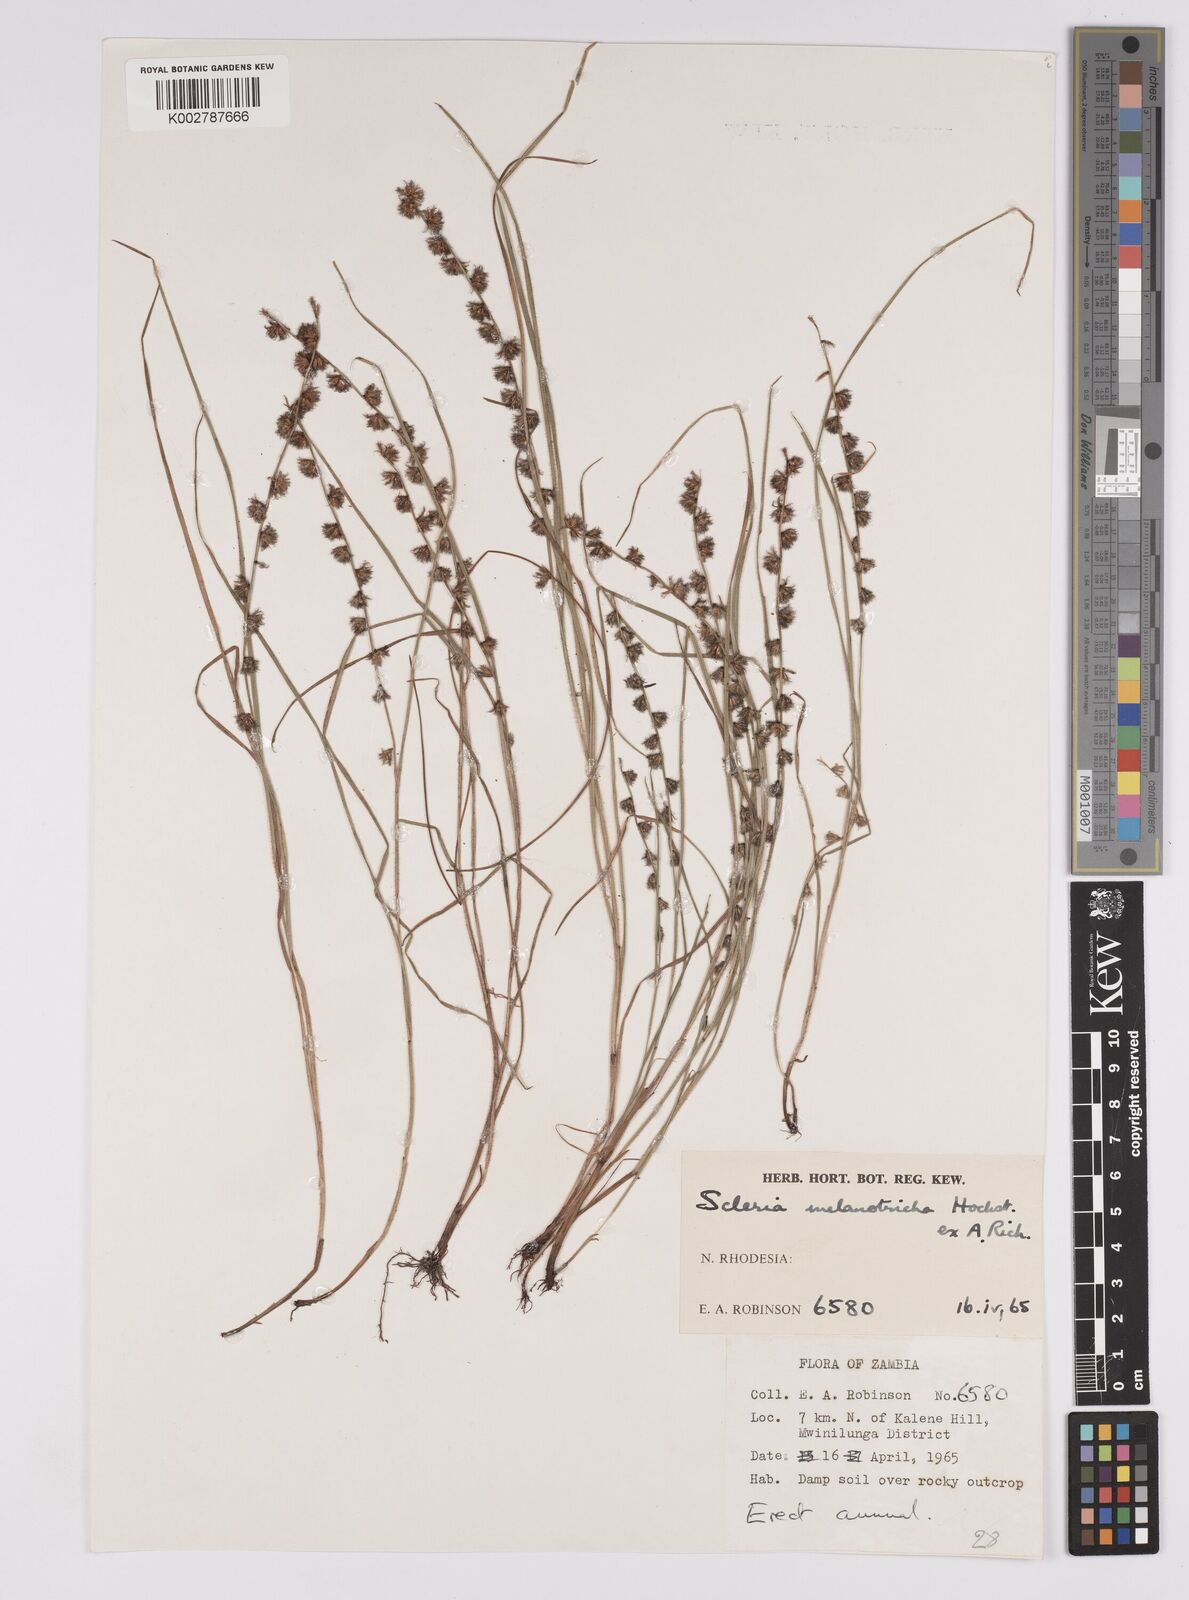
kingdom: Plantae
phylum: Tracheophyta
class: Liliopsida
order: Poales
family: Cyperaceae
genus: Scleria
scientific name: Scleria melanotricha
